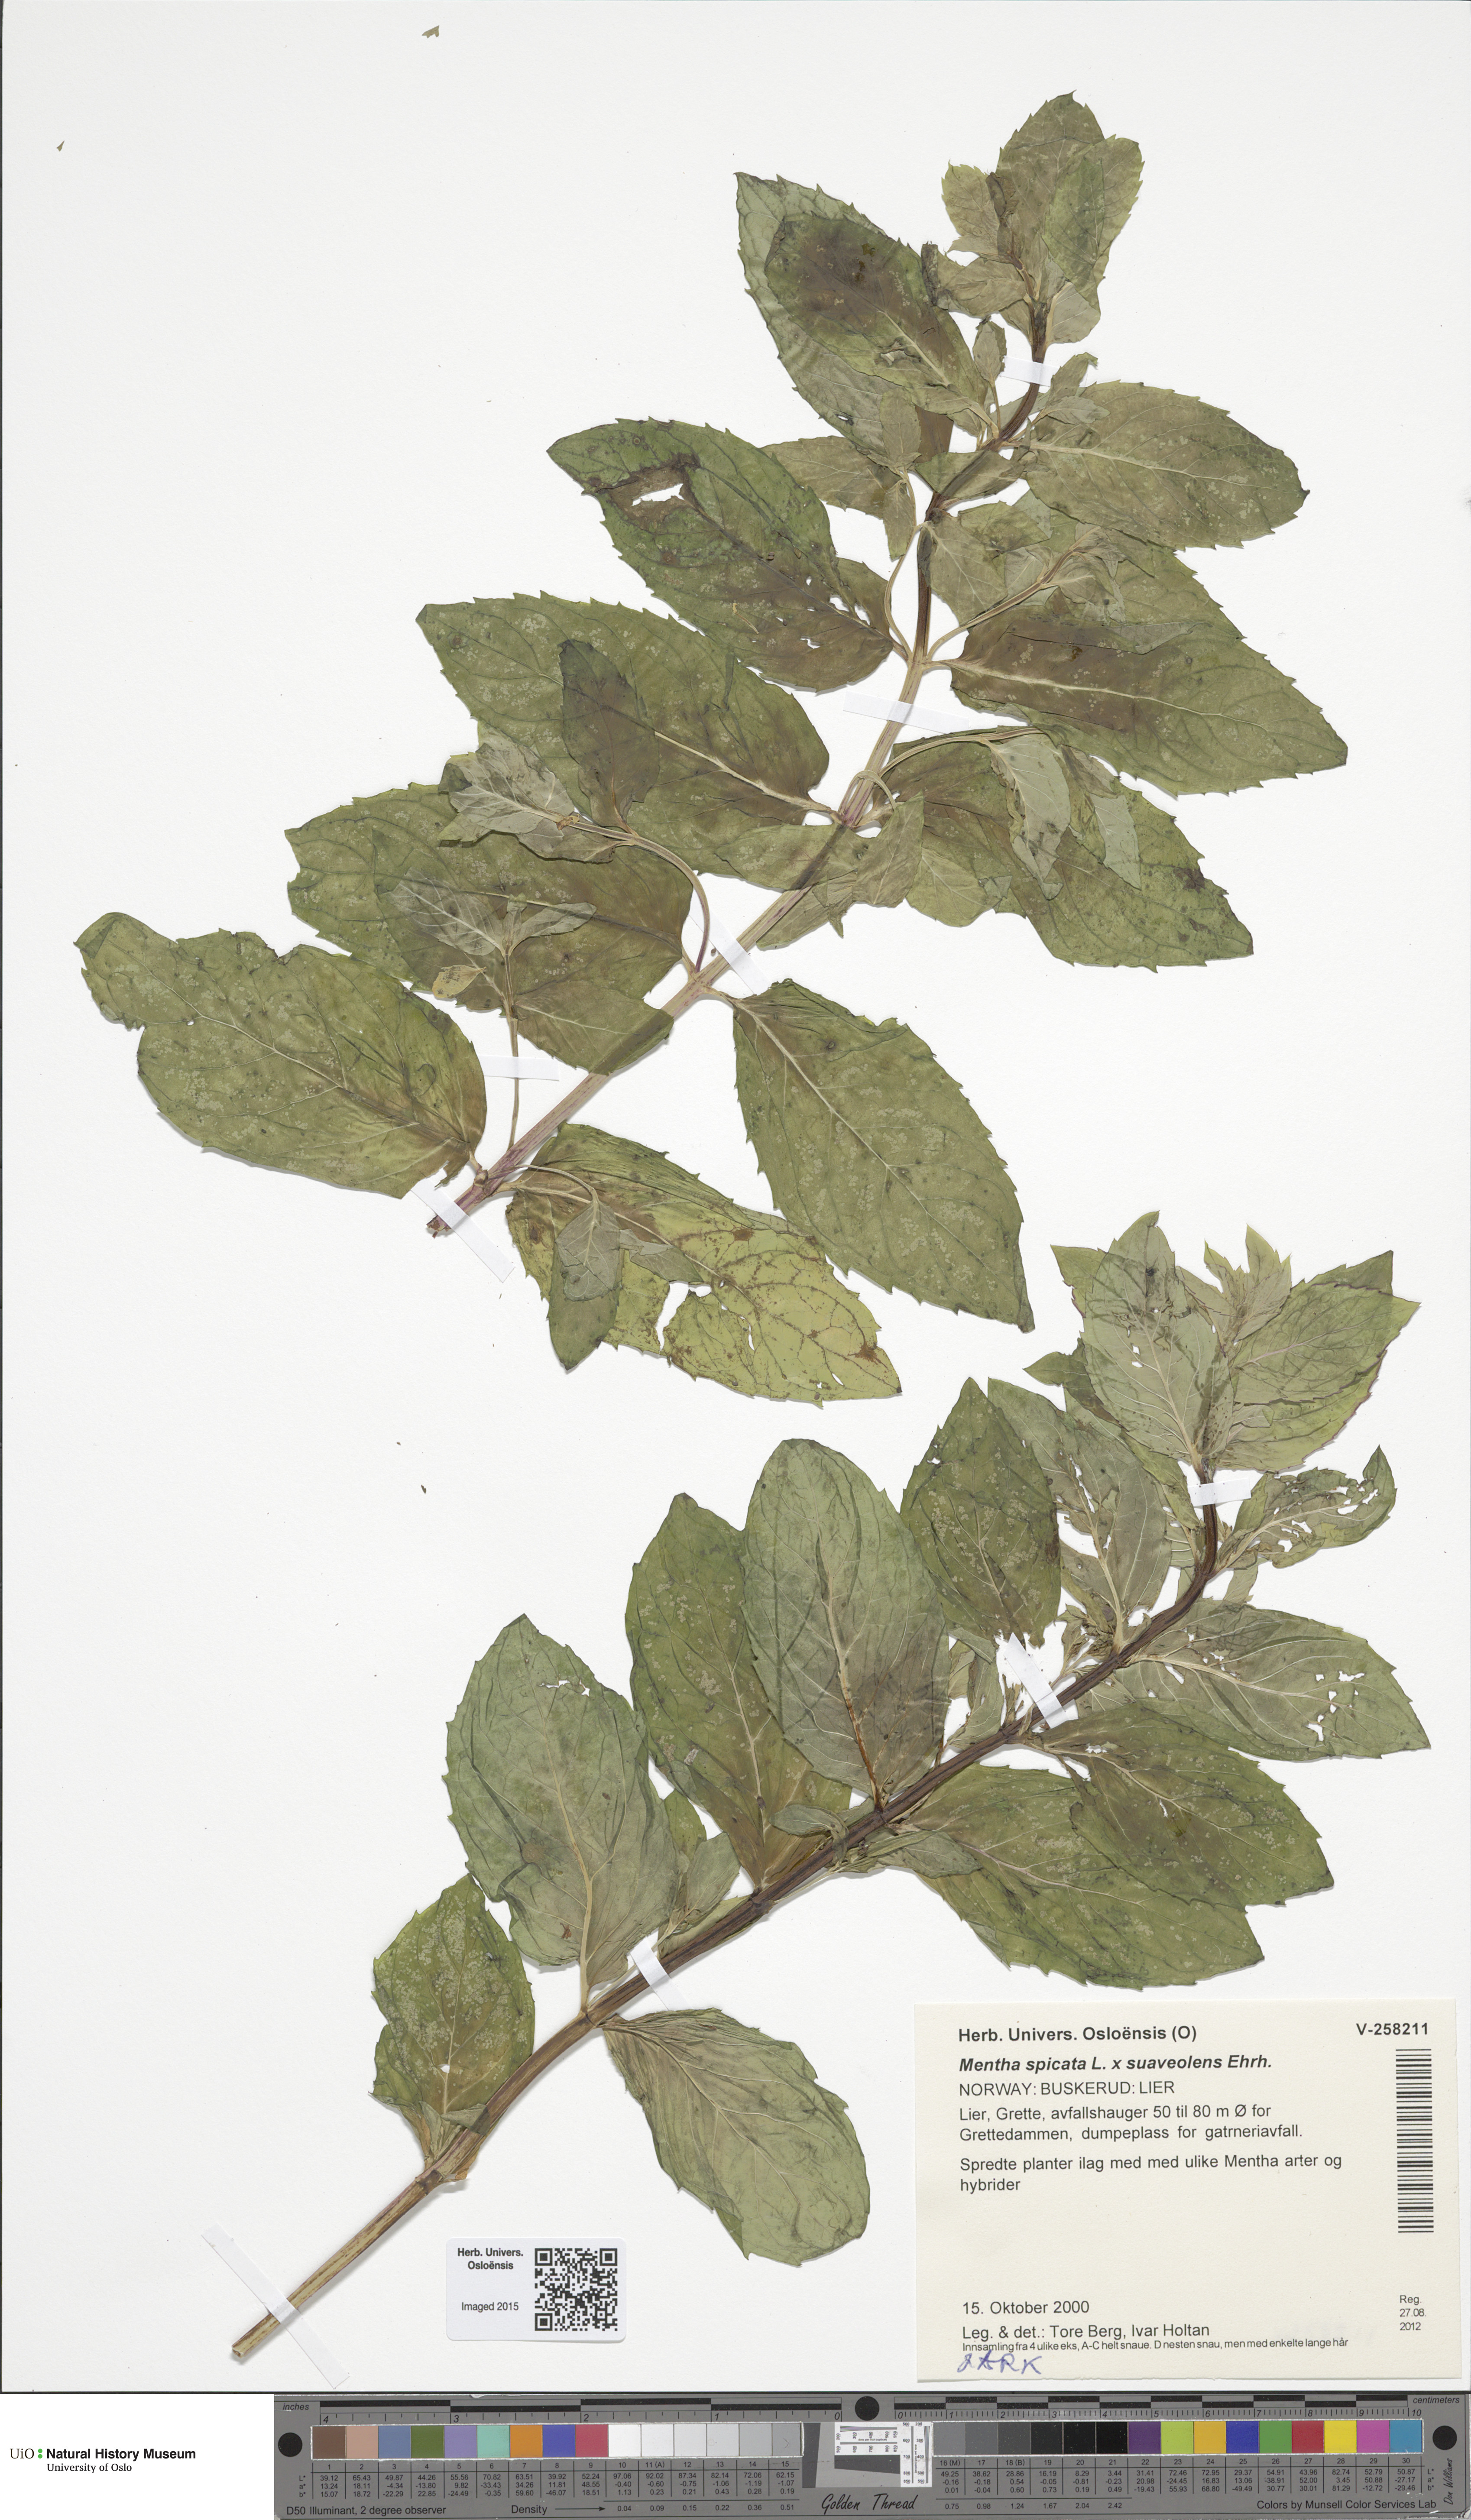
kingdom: Plantae
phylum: Tracheophyta
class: Magnoliopsida
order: Lamiales
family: Lamiaceae
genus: Mentha
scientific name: Mentha spicata
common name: Spearmint
